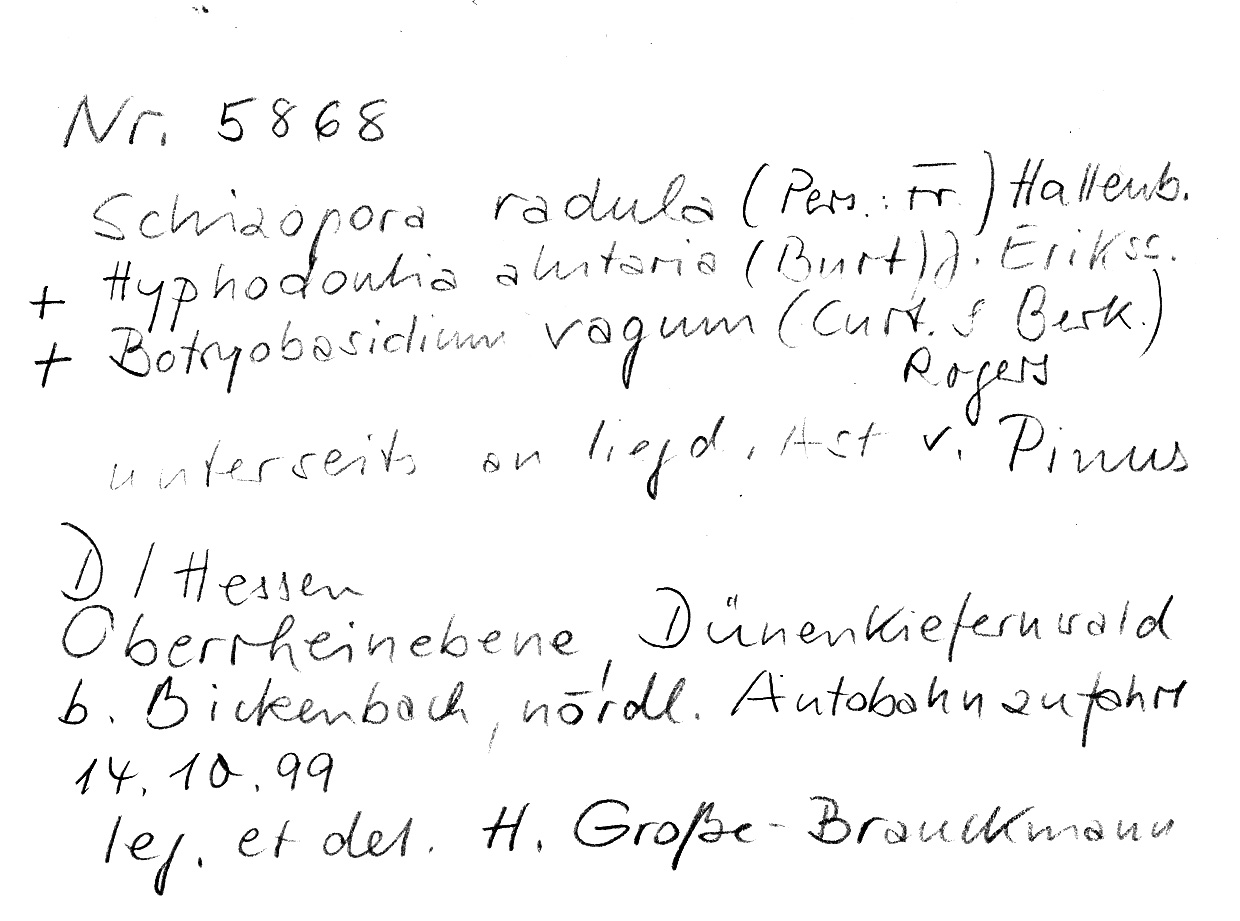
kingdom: Fungi
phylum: Basidiomycota
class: Agaricomycetes
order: Cantharellales
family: Botryobasidiaceae
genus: Botryobasidium
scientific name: Botryobasidium vagum
